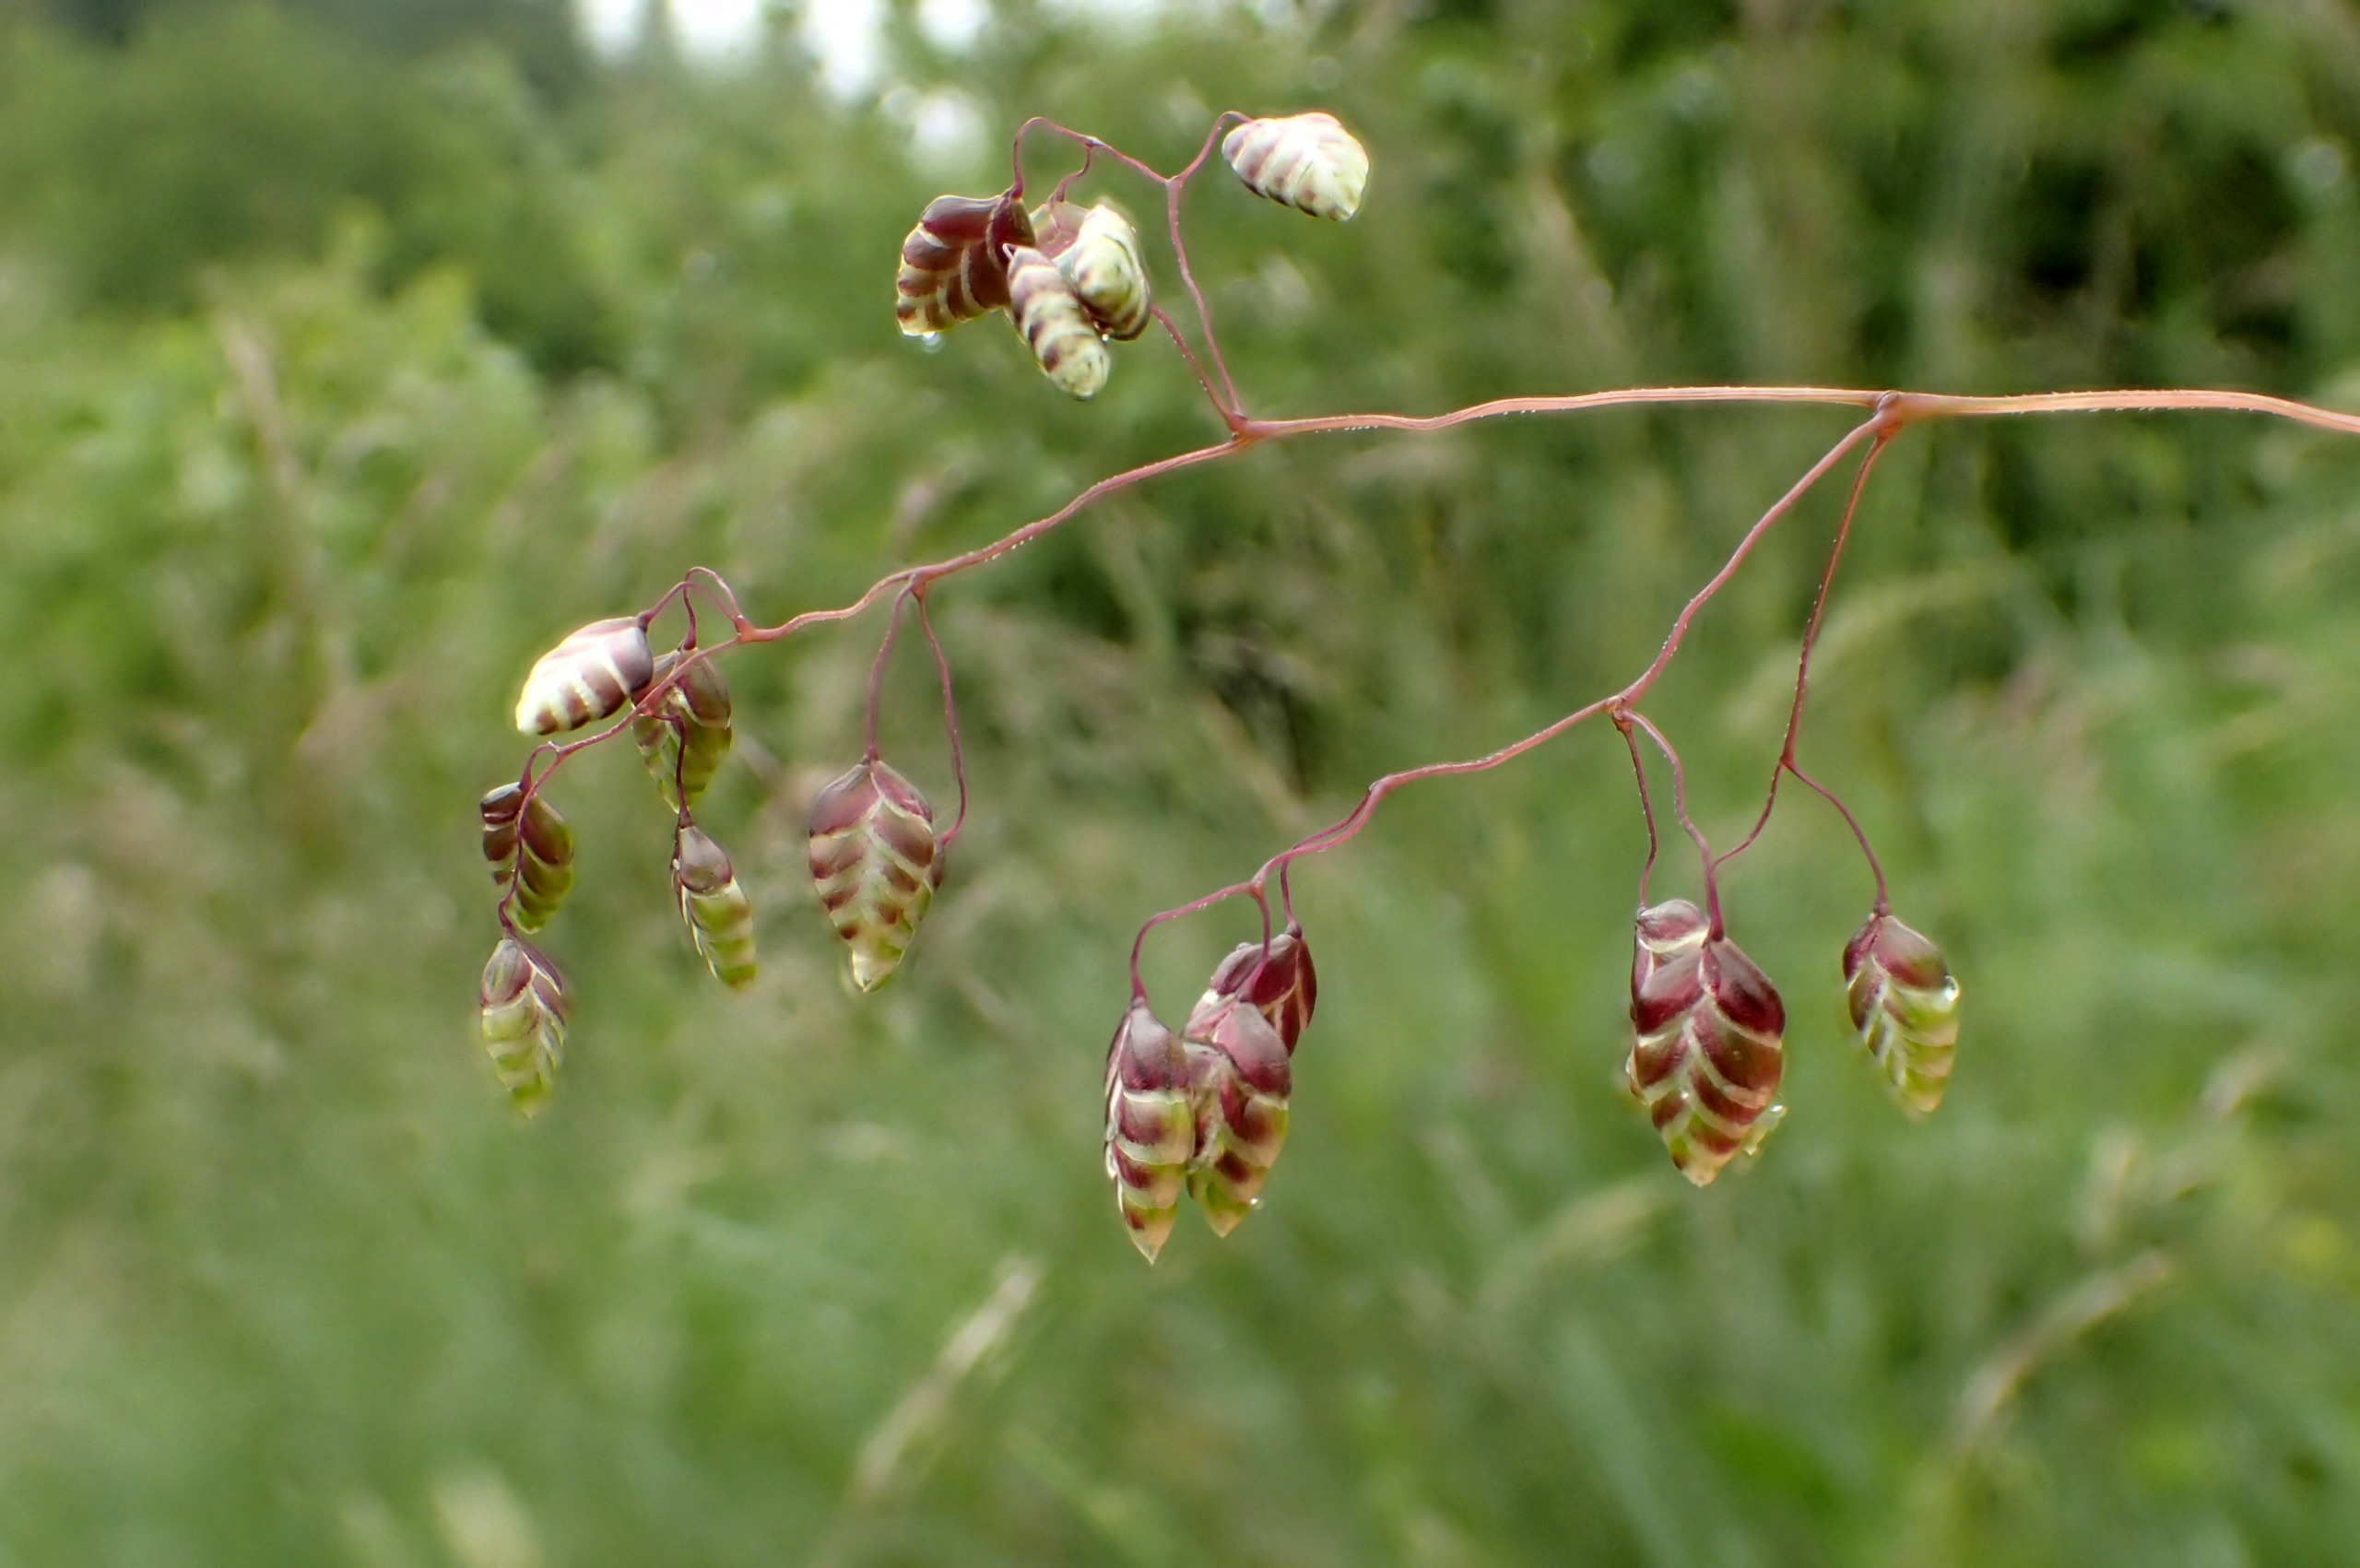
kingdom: Plantae
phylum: Tracheophyta
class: Liliopsida
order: Poales
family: Poaceae
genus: Briza
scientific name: Briza media
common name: Hjertegræs
